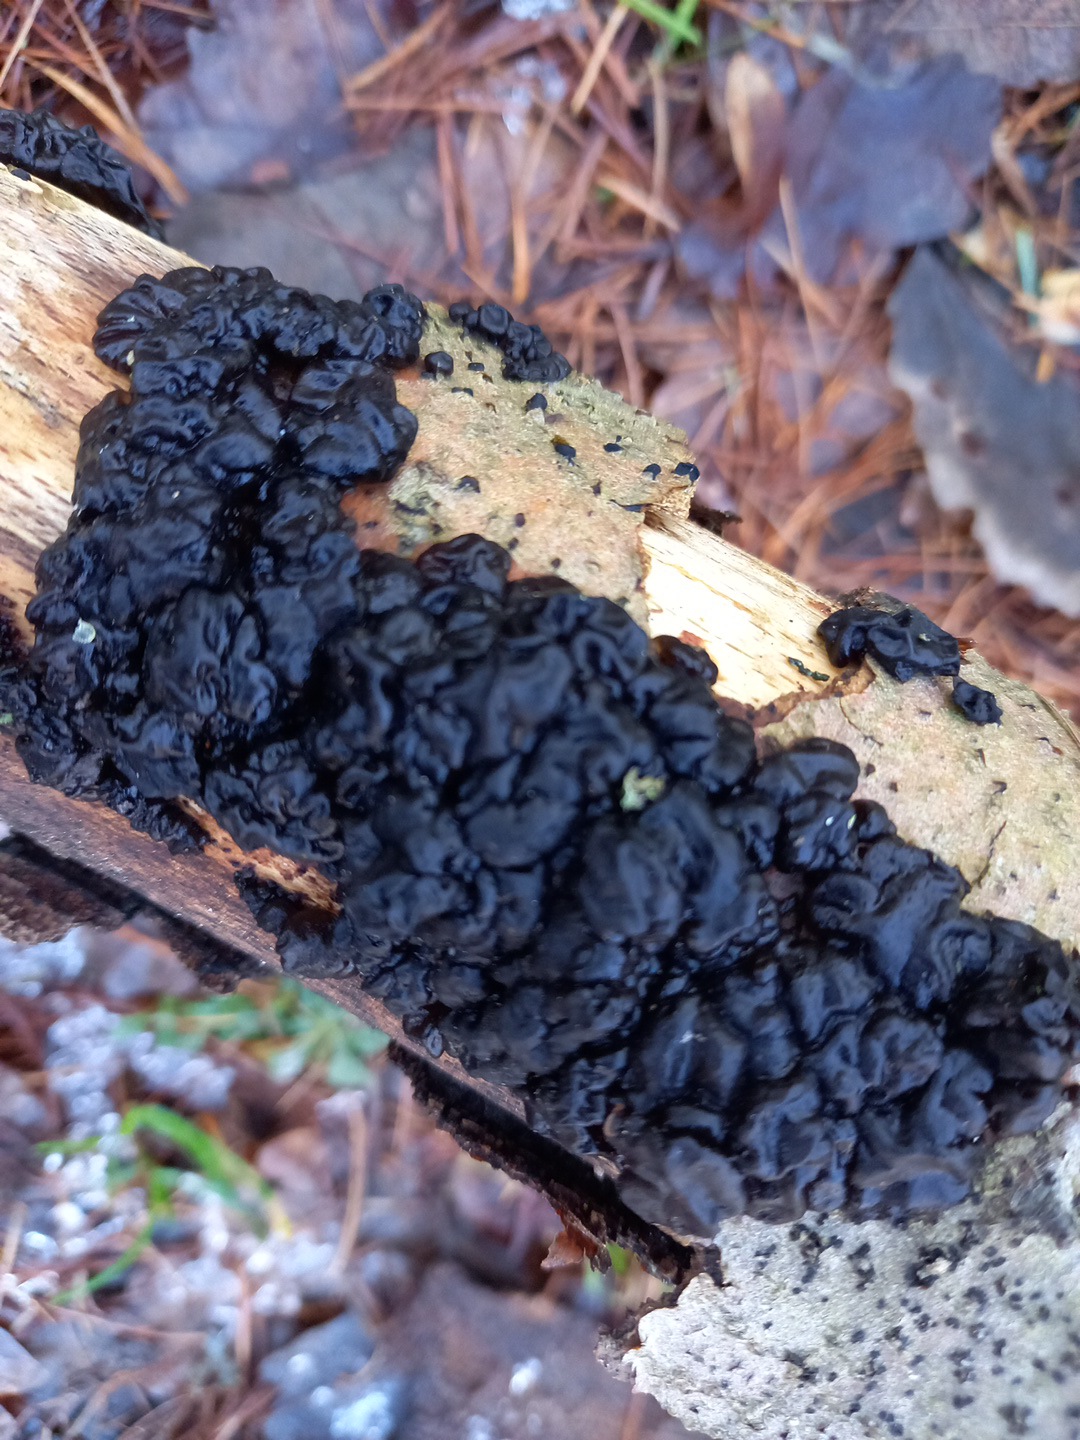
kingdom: Fungi
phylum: Basidiomycota
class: Agaricomycetes
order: Auriculariales
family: Auriculariaceae
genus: Exidia
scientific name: Exidia nigricans
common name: almindelig bævretop
